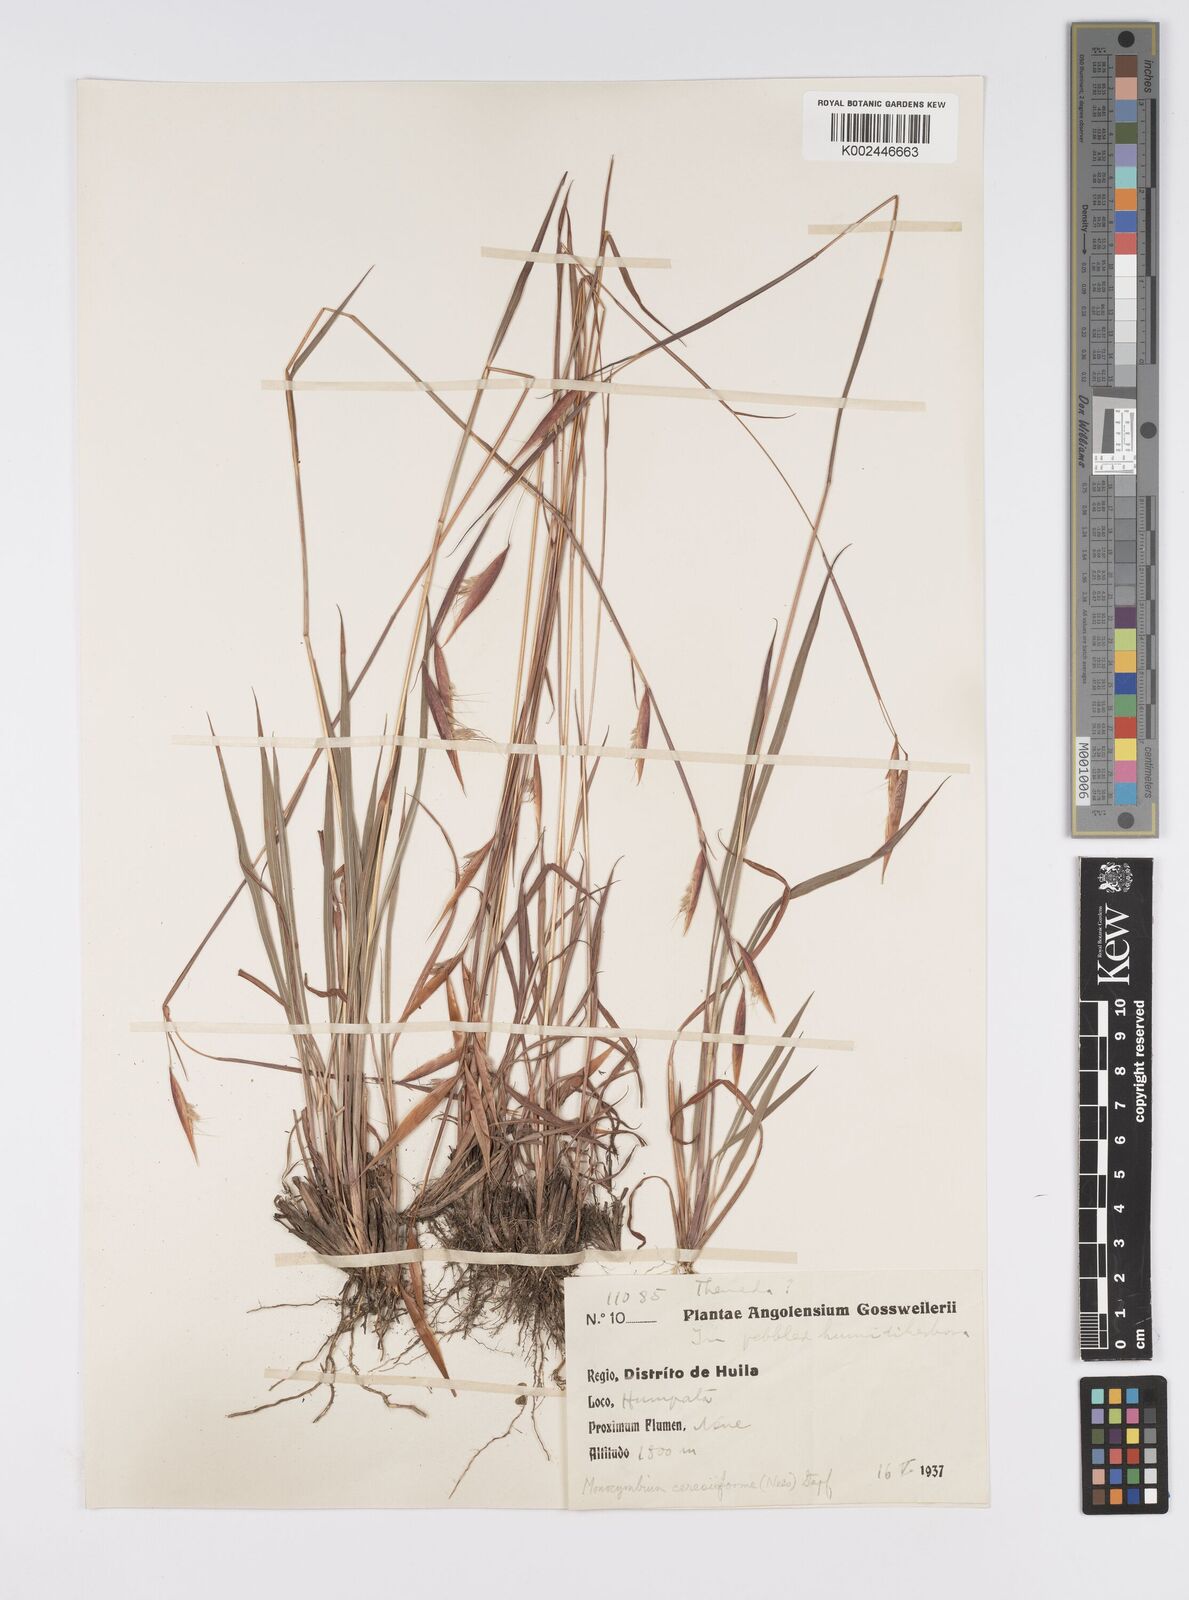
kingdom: Plantae
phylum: Tracheophyta
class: Liliopsida
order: Poales
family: Poaceae
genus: Monocymbium
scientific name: Monocymbium ceresiiforme
